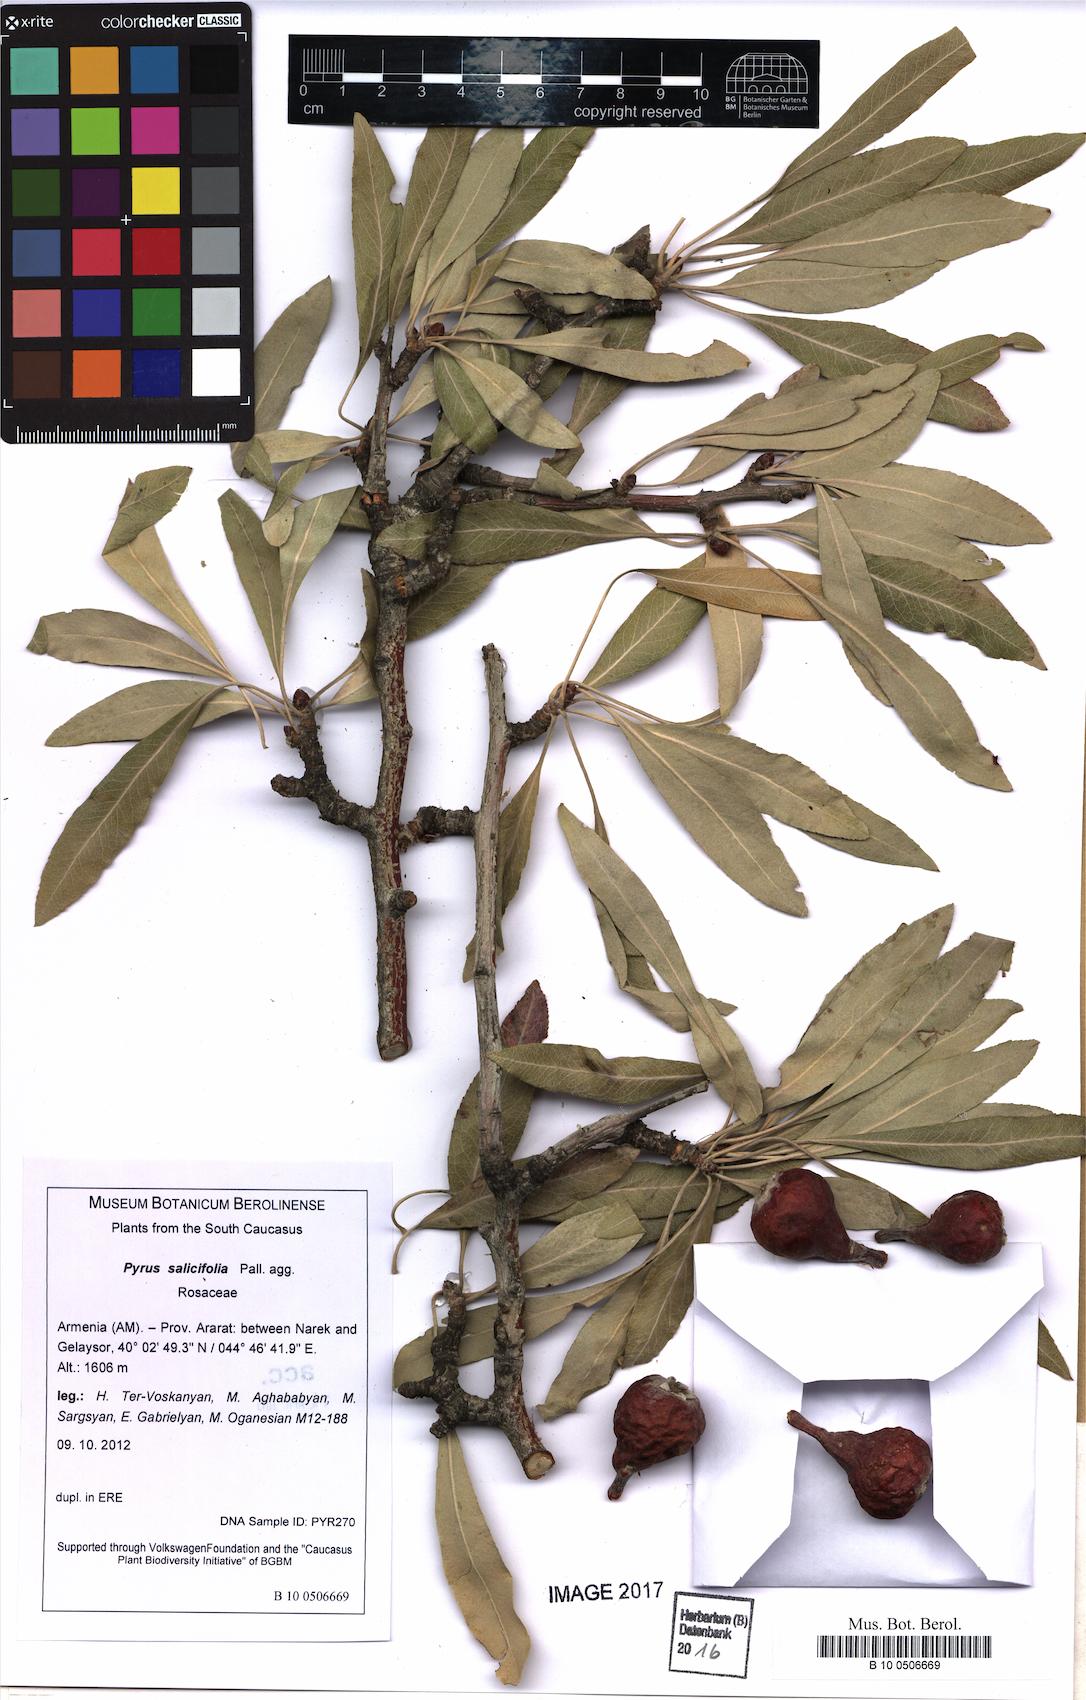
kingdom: Plantae
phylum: Tracheophyta
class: Magnoliopsida
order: Rosales
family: Rosaceae
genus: Pyrus
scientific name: Pyrus salicifolia
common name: Willow-leaved pear
